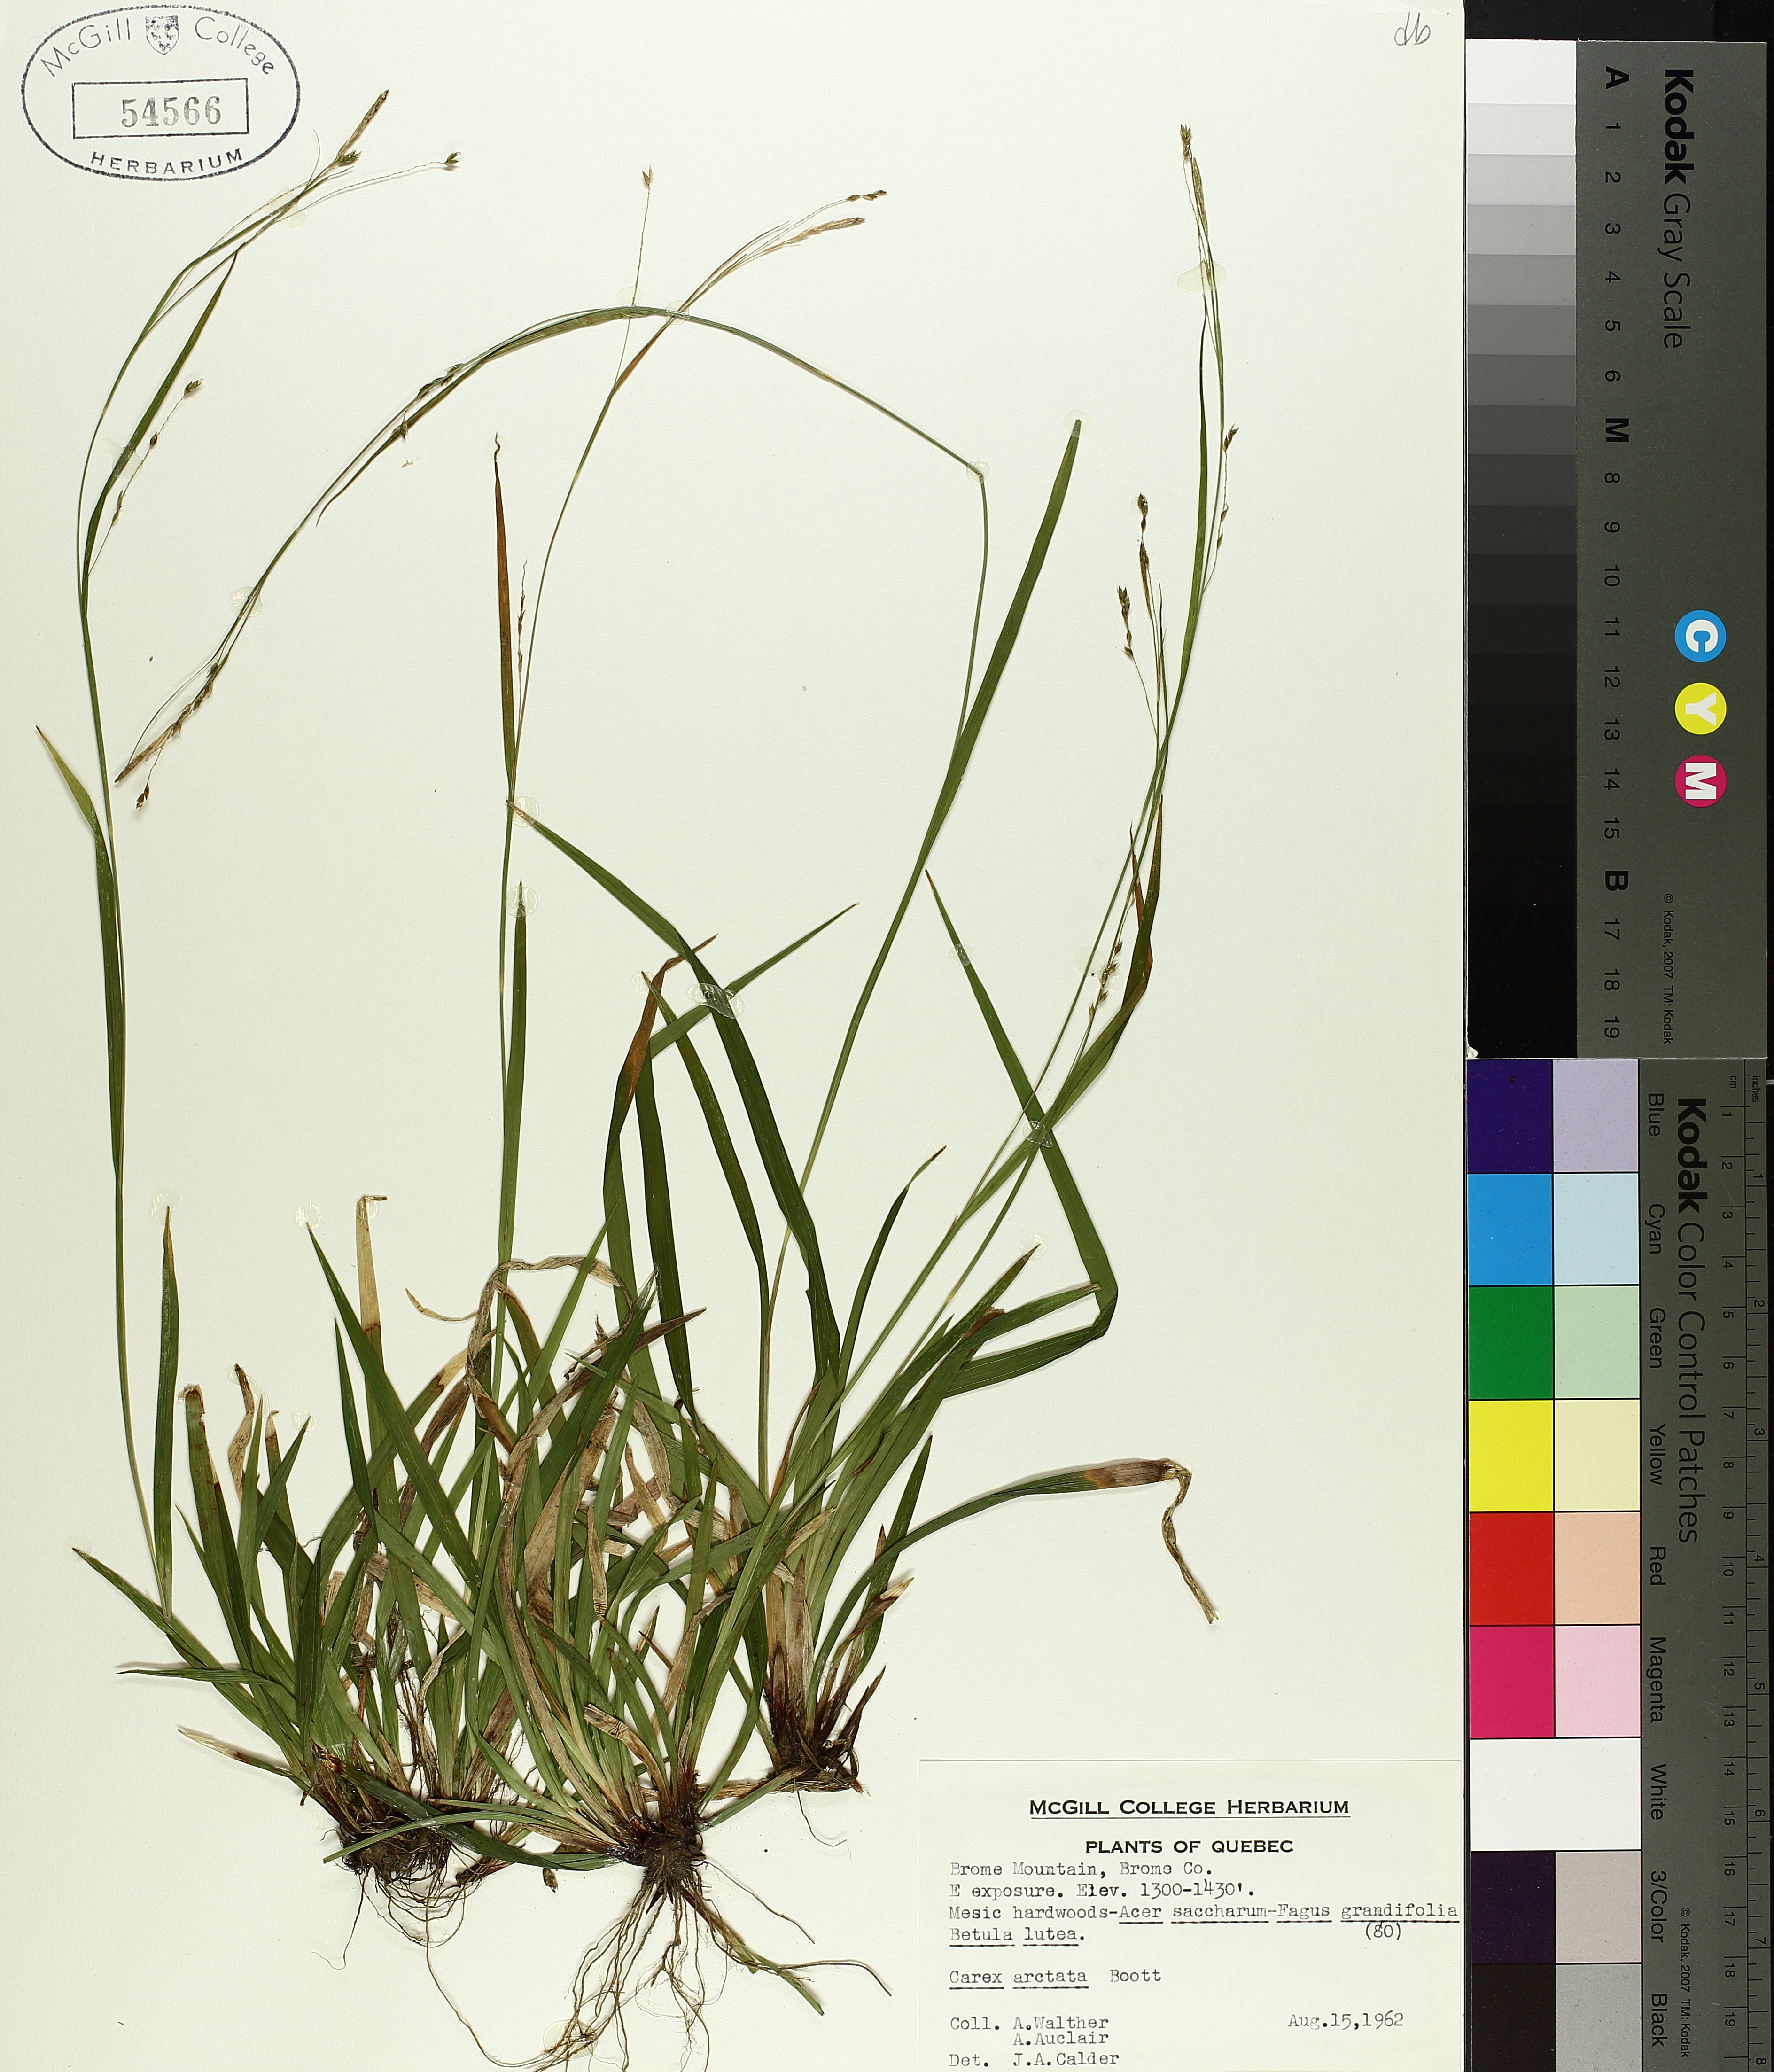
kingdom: Plantae
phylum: Tracheophyta
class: Liliopsida
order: Poales
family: Cyperaceae
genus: Carex
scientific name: Carex arctata
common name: Black sedge
